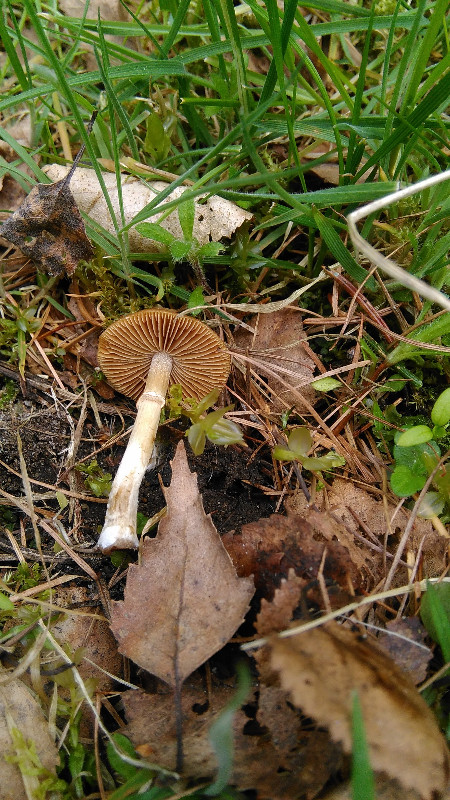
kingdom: Fungi
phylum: Basidiomycota
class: Agaricomycetes
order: Agaricales
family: Bolbitiaceae
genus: Conocybe
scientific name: Conocybe aporos
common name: tidlig dansehat
